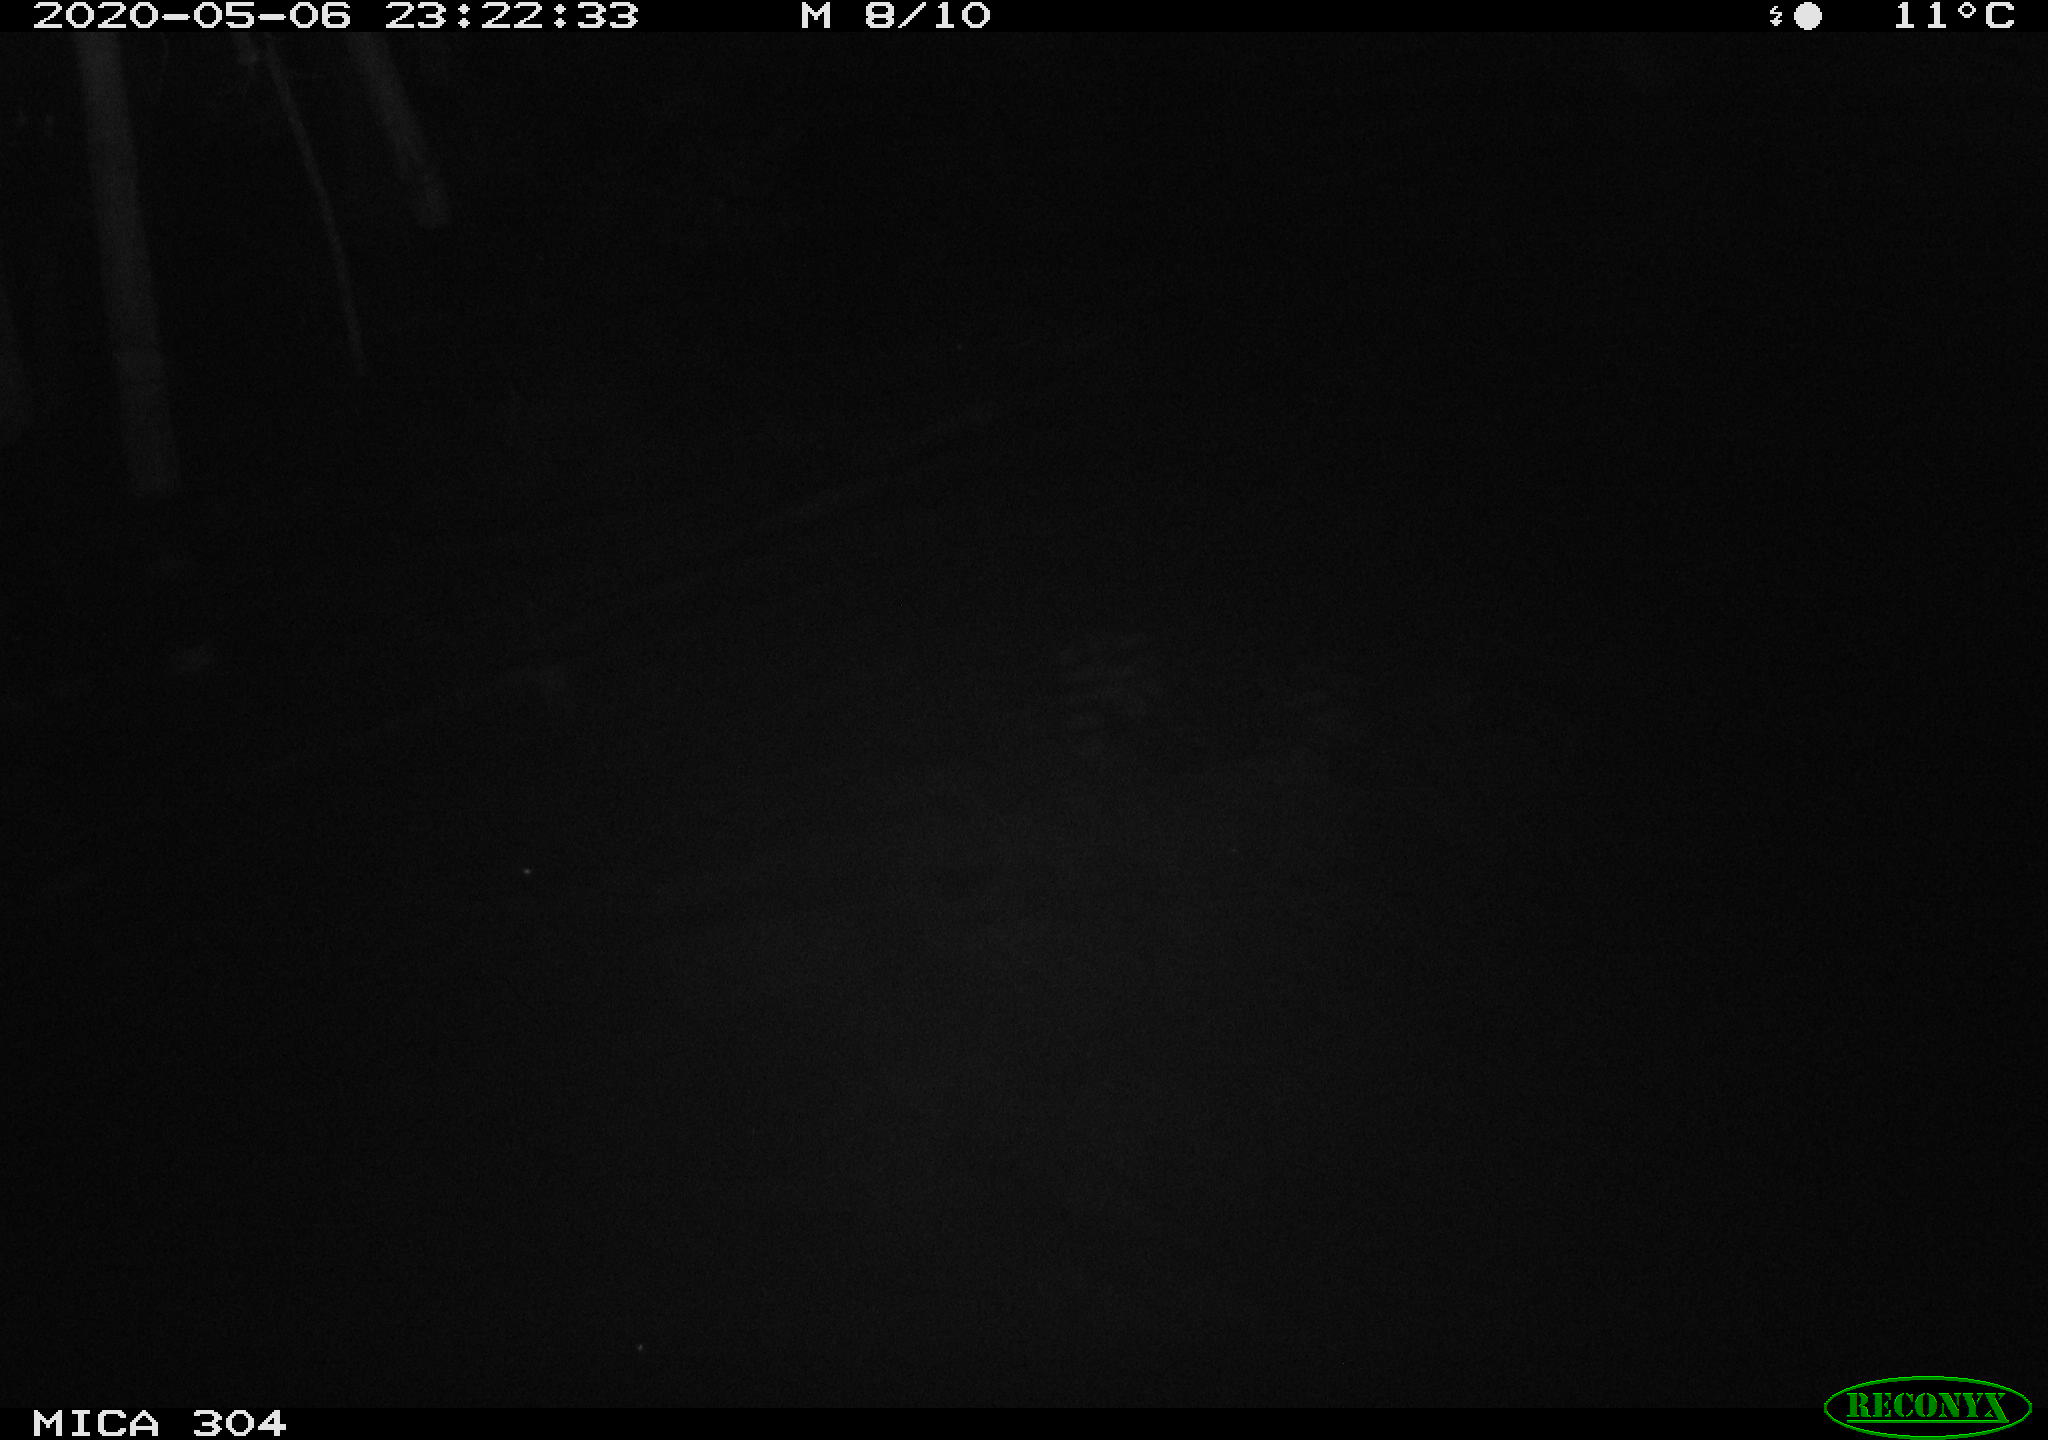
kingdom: Animalia
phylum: Chordata
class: Aves
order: Anseriformes
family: Anatidae
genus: Anas
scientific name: Anas platyrhynchos
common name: Mallard
